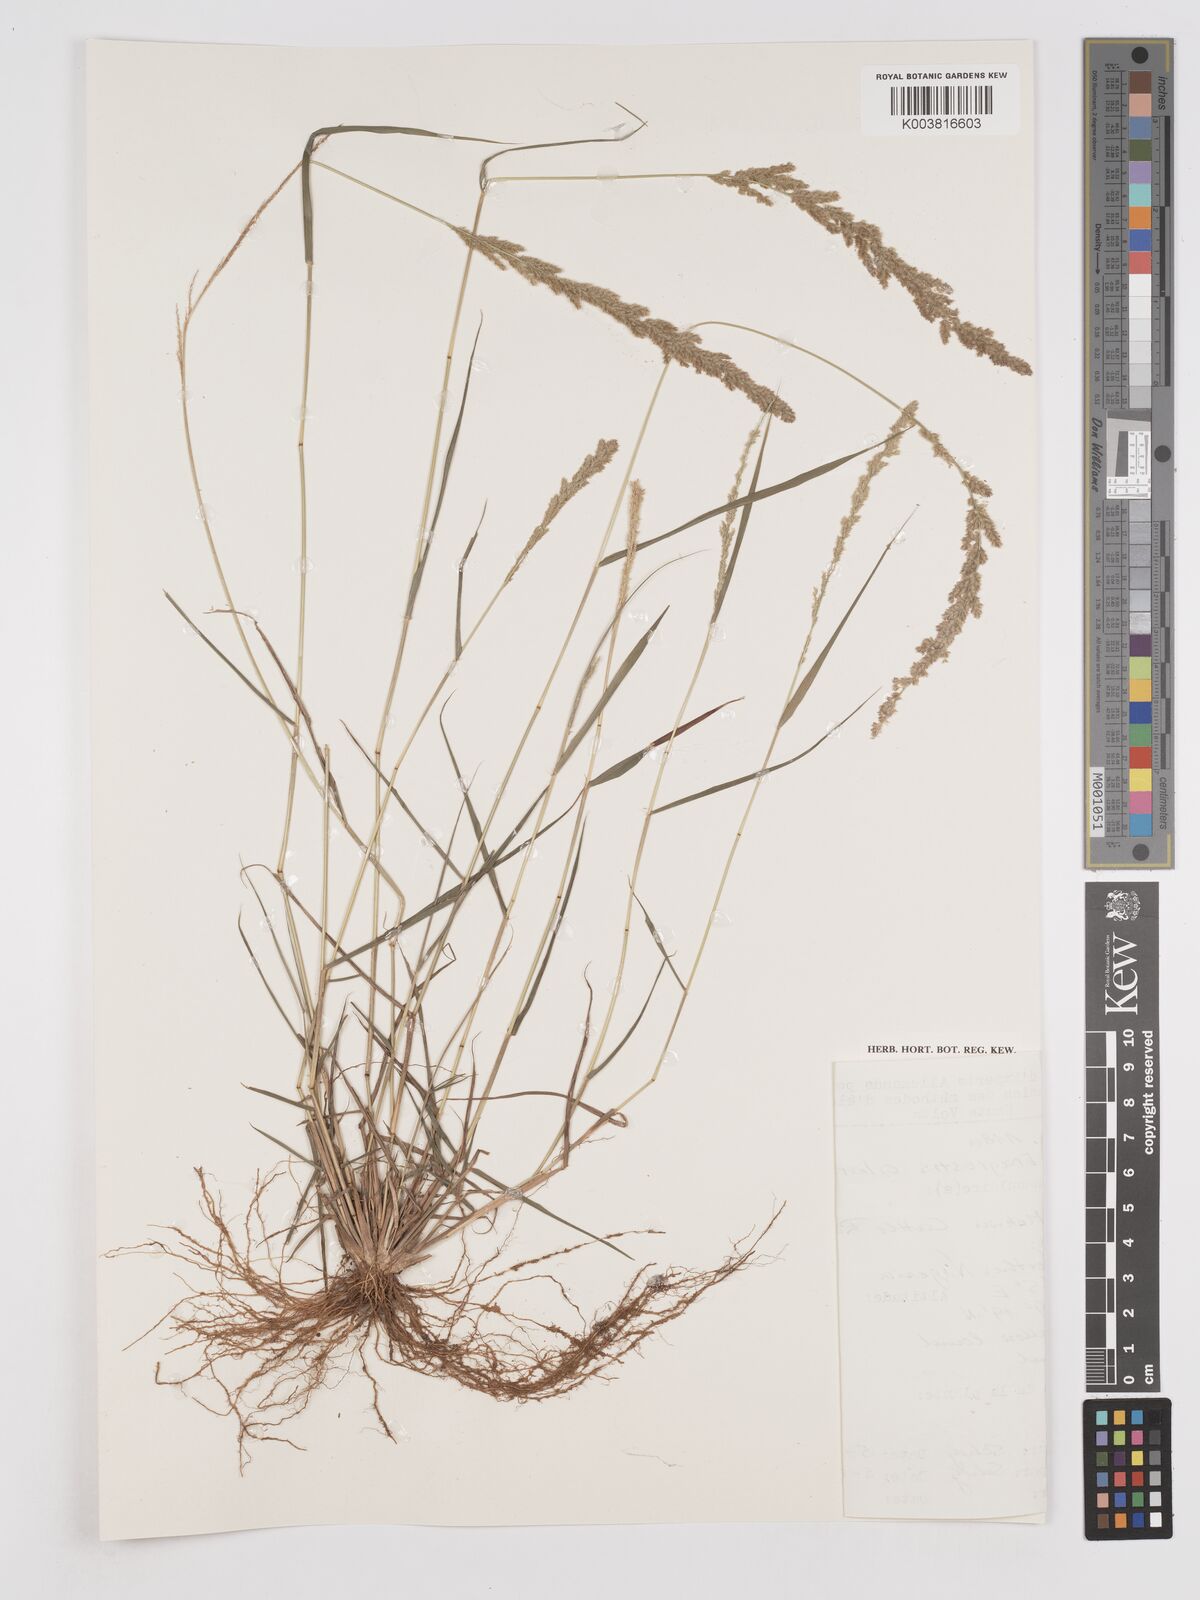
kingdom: Plantae
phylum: Tracheophyta
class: Liliopsida
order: Poales
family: Poaceae
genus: Eragrostis
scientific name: Eragrostis ciliaris
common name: Gophertail lovegrass
